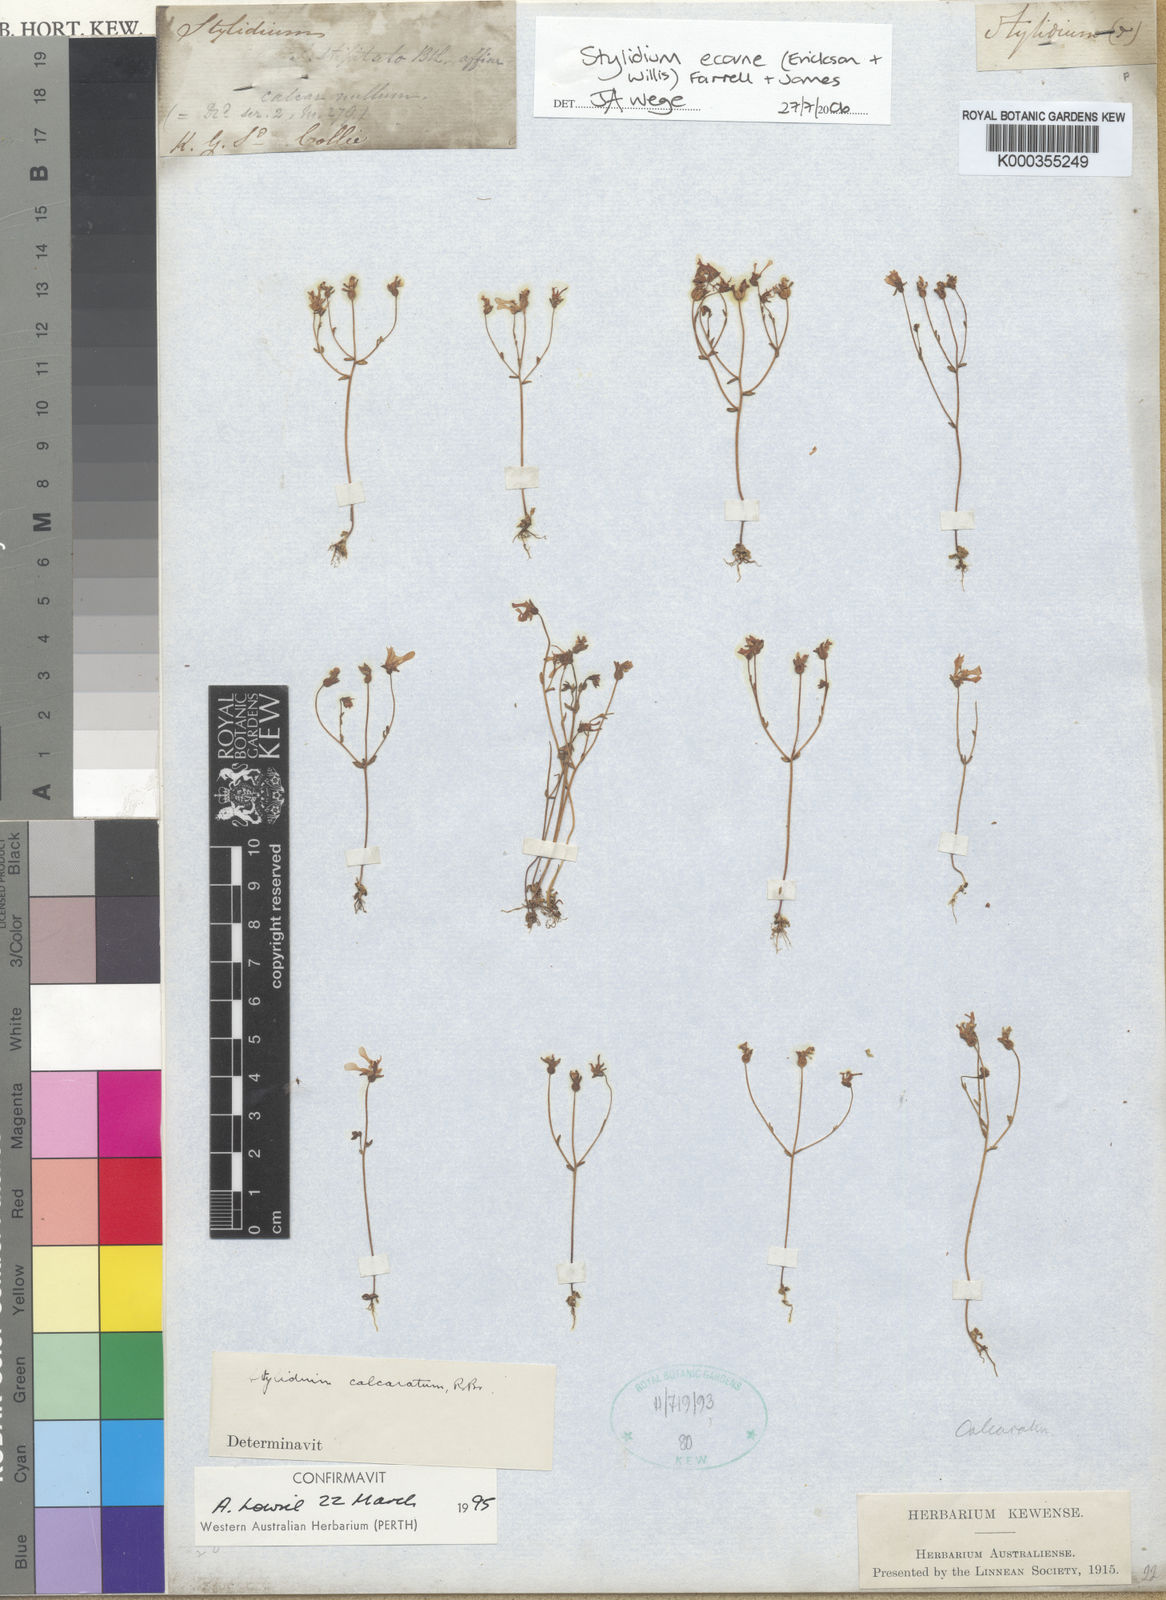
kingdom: Plantae
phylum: Tracheophyta
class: Magnoliopsida
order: Asterales
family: Stylidiaceae
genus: Stylidium
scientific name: Stylidium
